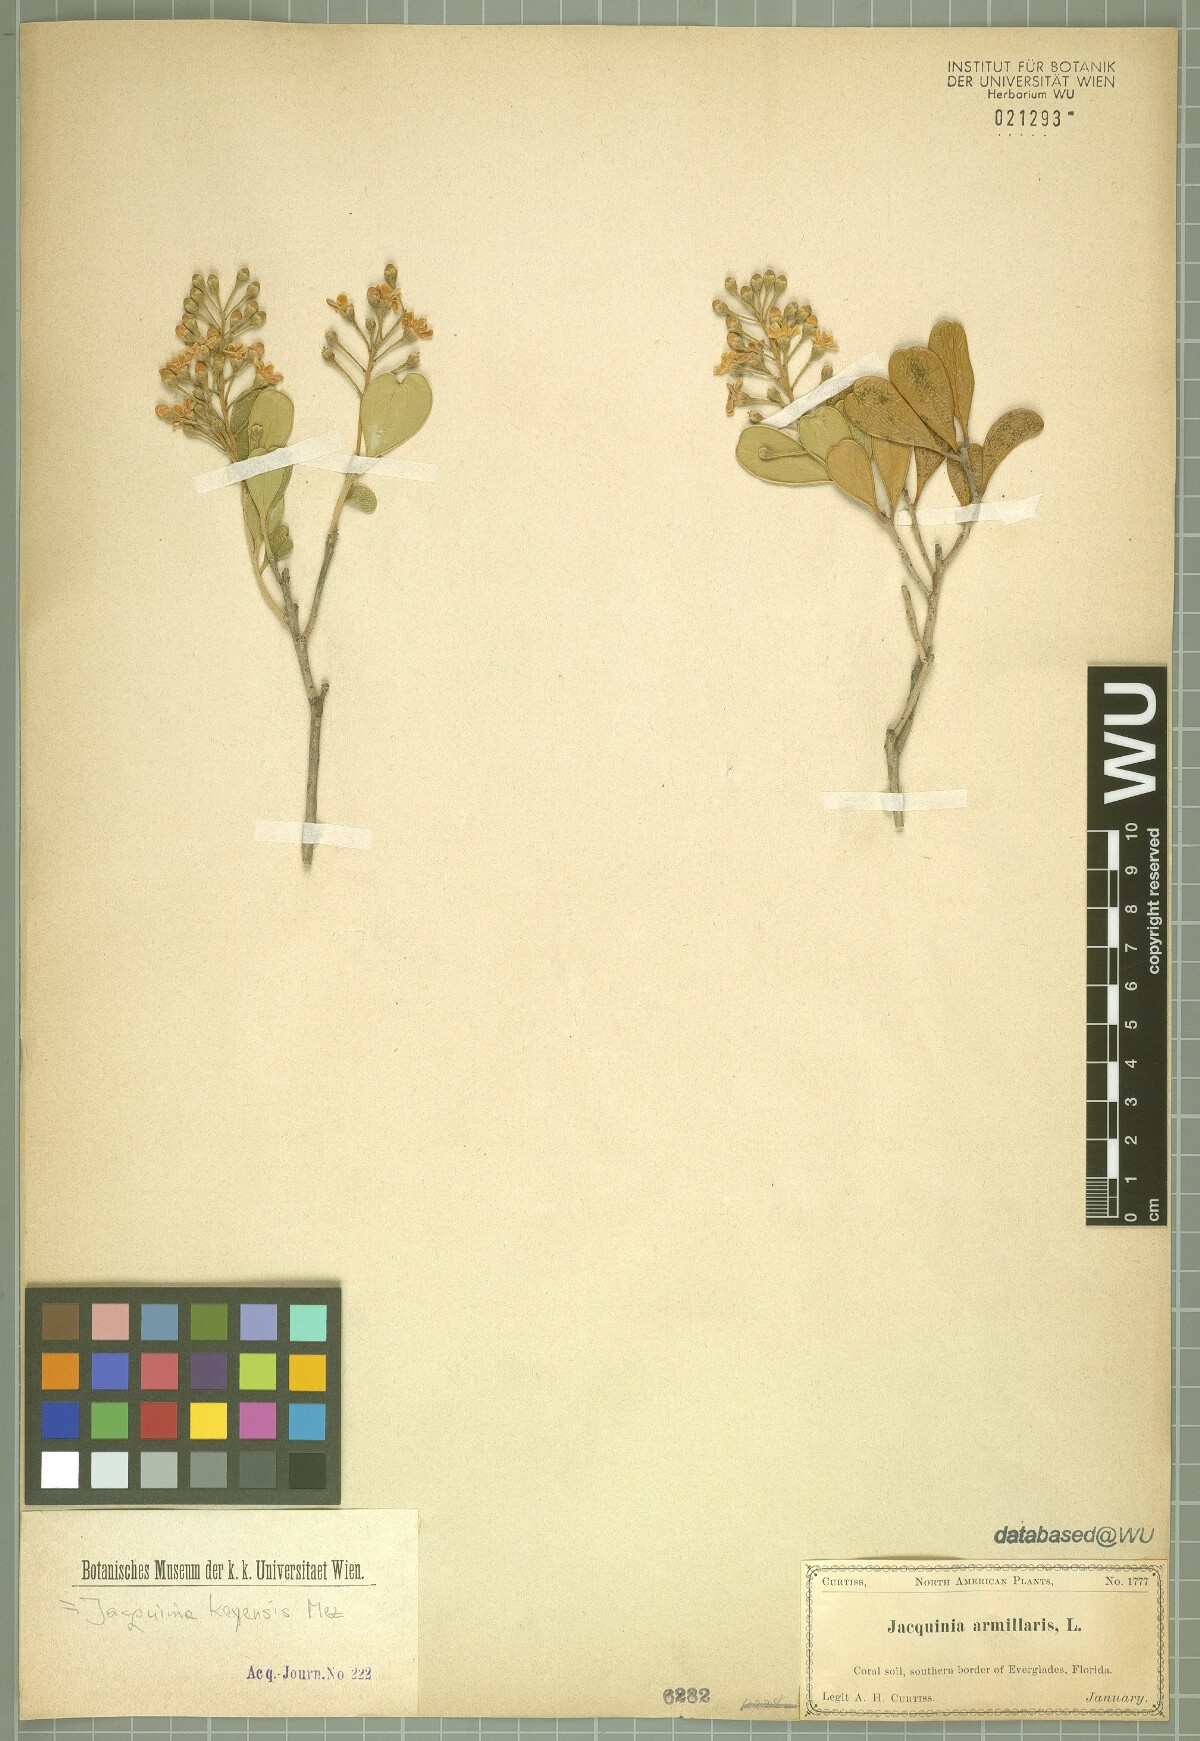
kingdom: Plantae
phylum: Tracheophyta
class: Magnoliopsida
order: Ericales
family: Primulaceae
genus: Jacquinia
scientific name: Jacquinia keyensis
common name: Joebush
